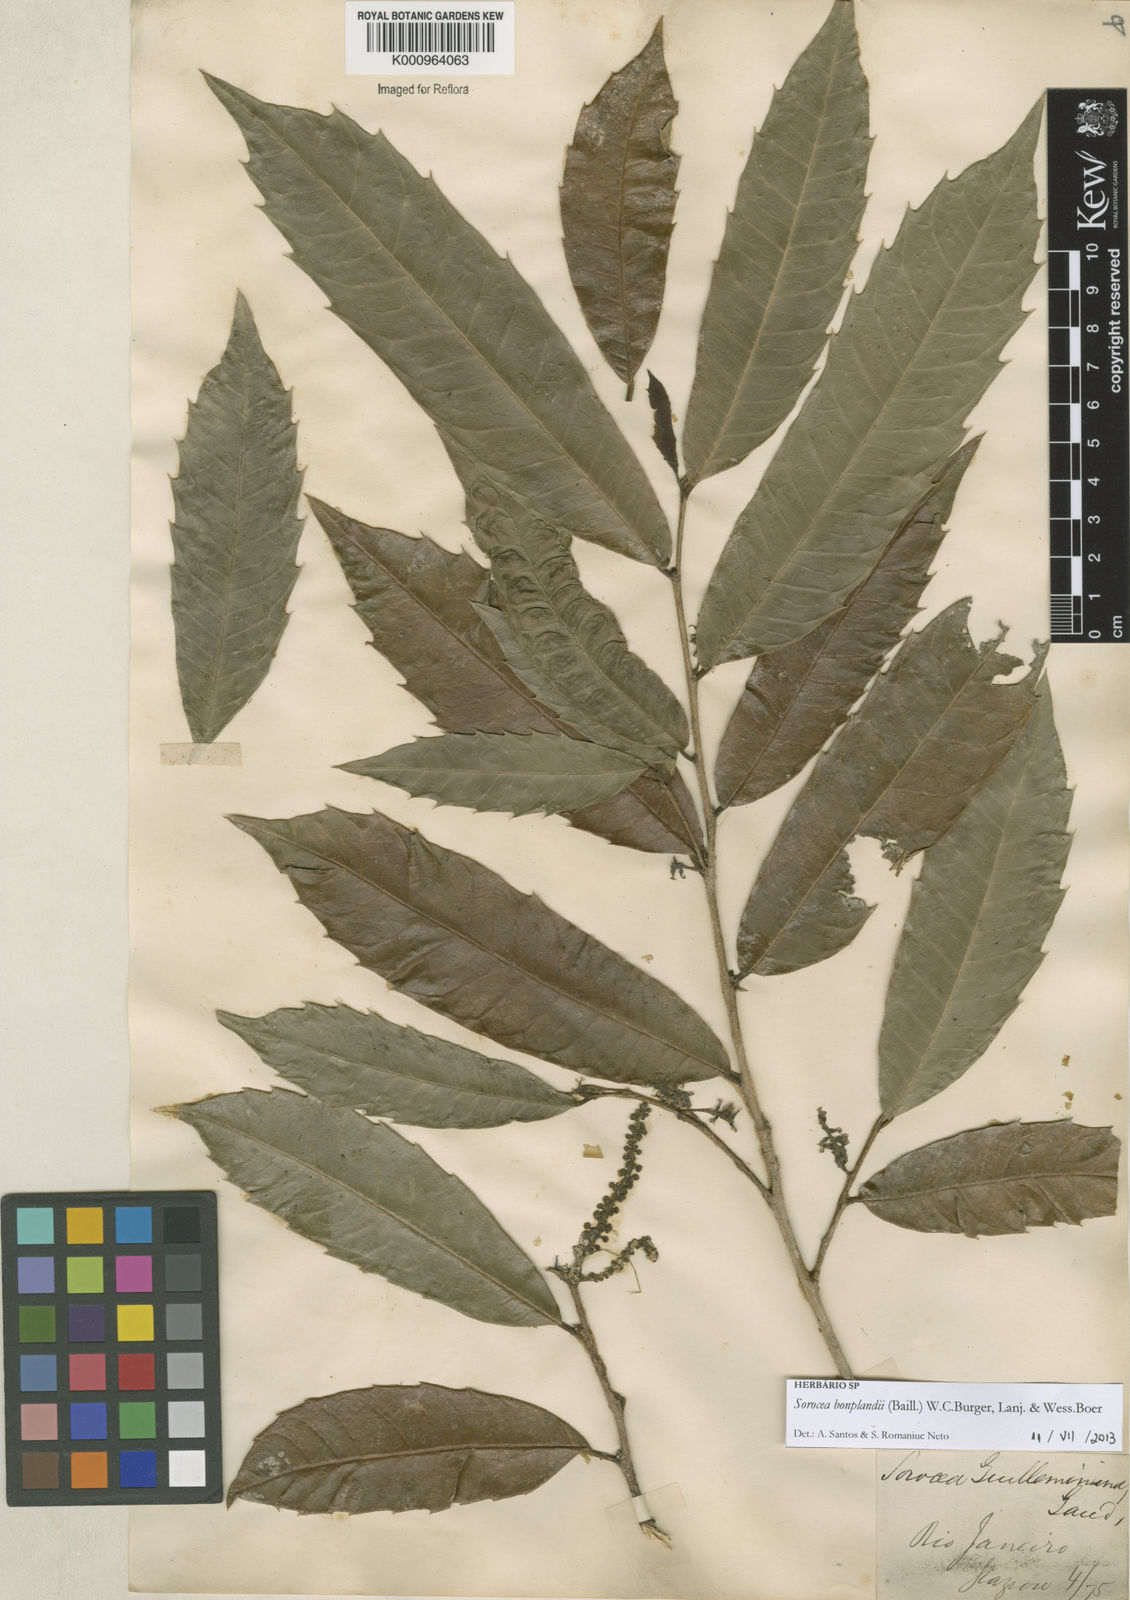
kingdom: Plantae
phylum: Tracheophyta
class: Magnoliopsida
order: Rosales
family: Moraceae
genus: Sorocea
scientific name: Sorocea
